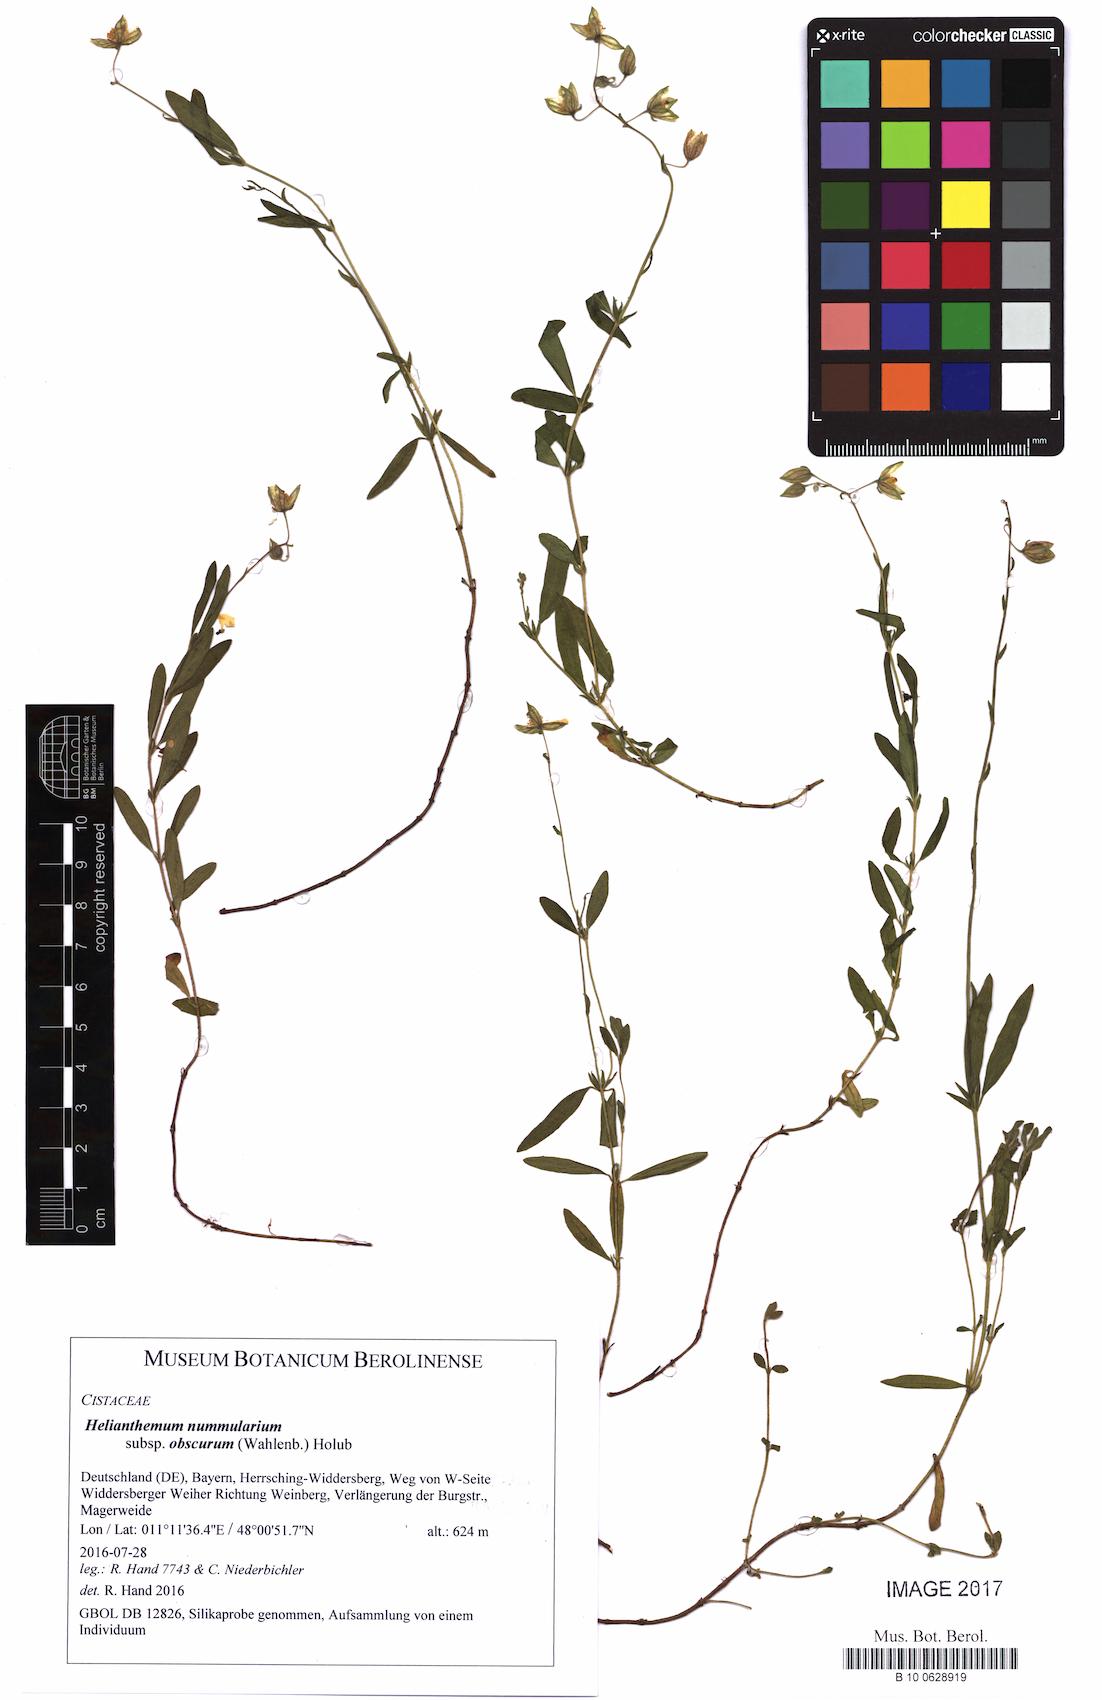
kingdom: Plantae
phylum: Tracheophyta
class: Magnoliopsida
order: Malvales
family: Cistaceae
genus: Helianthemum
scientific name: Helianthemum nummularium
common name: Common rock-rose
